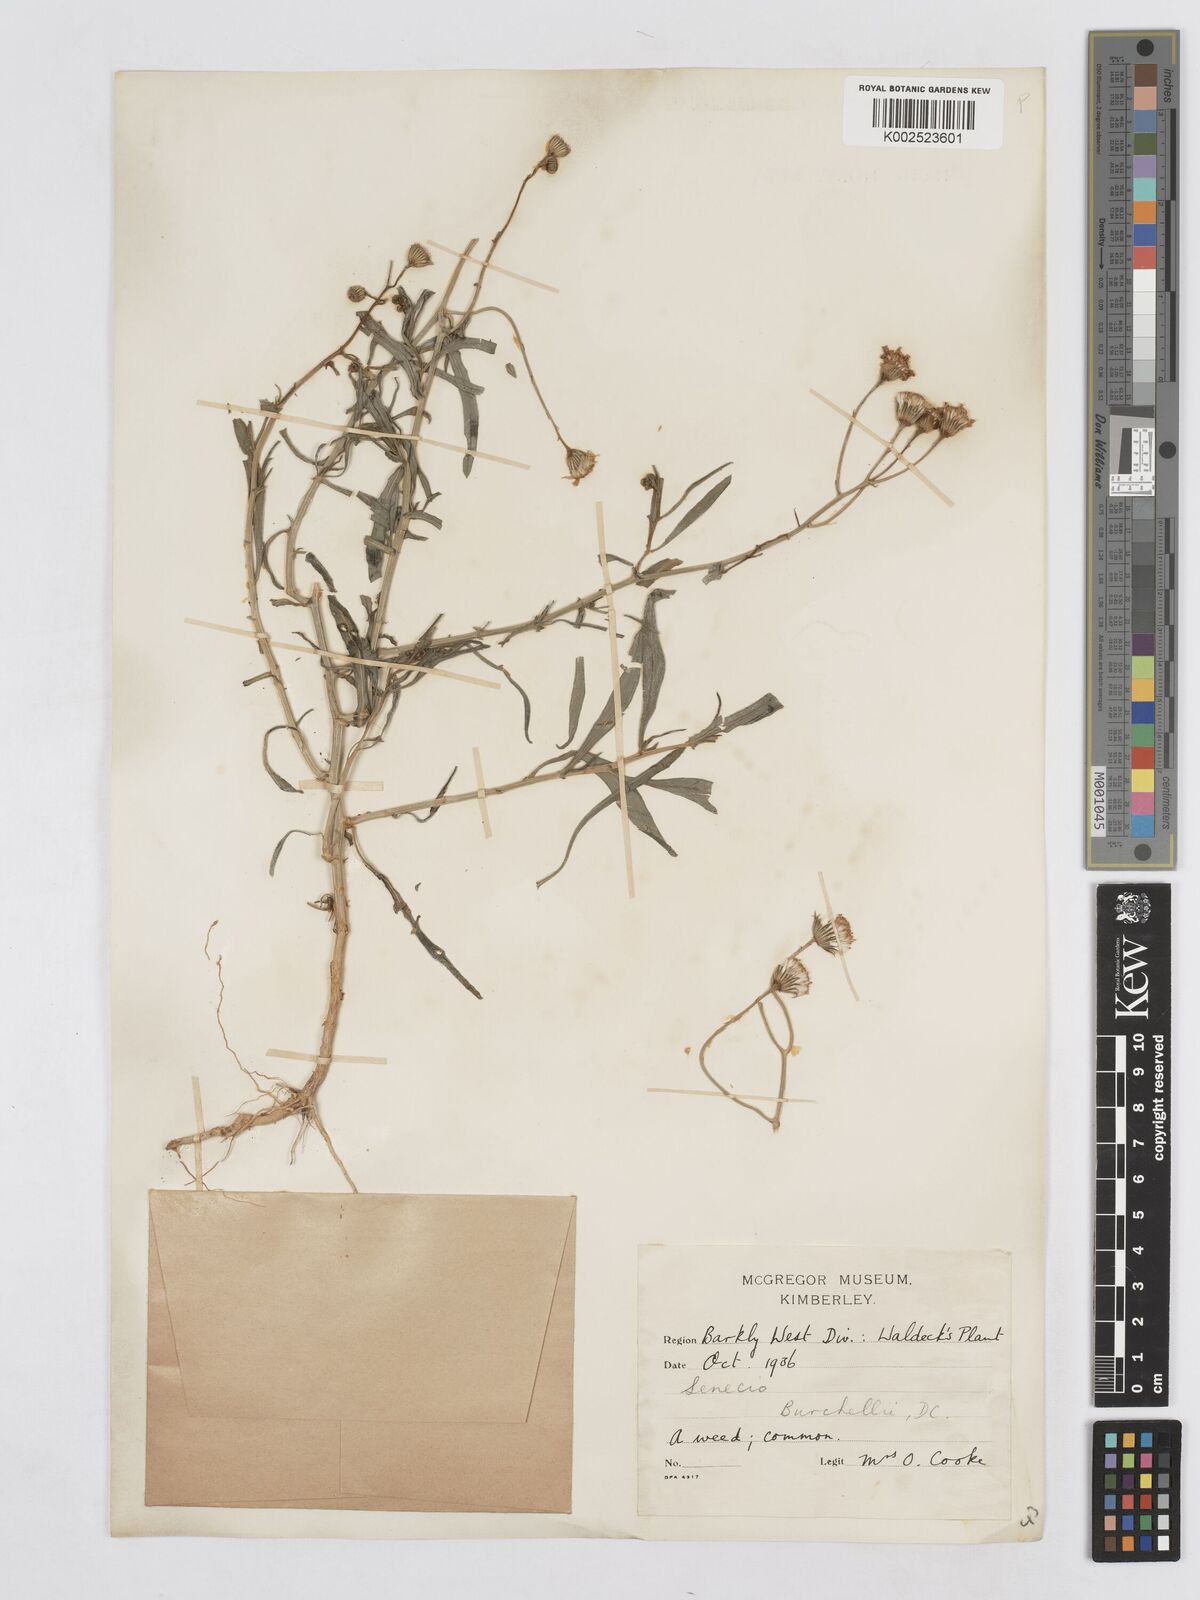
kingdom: Plantae
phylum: Tracheophyta
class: Magnoliopsida
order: Asterales
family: Asteraceae
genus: Senecio
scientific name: Senecio inaequidens
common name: Narrow-leaved ragwort
